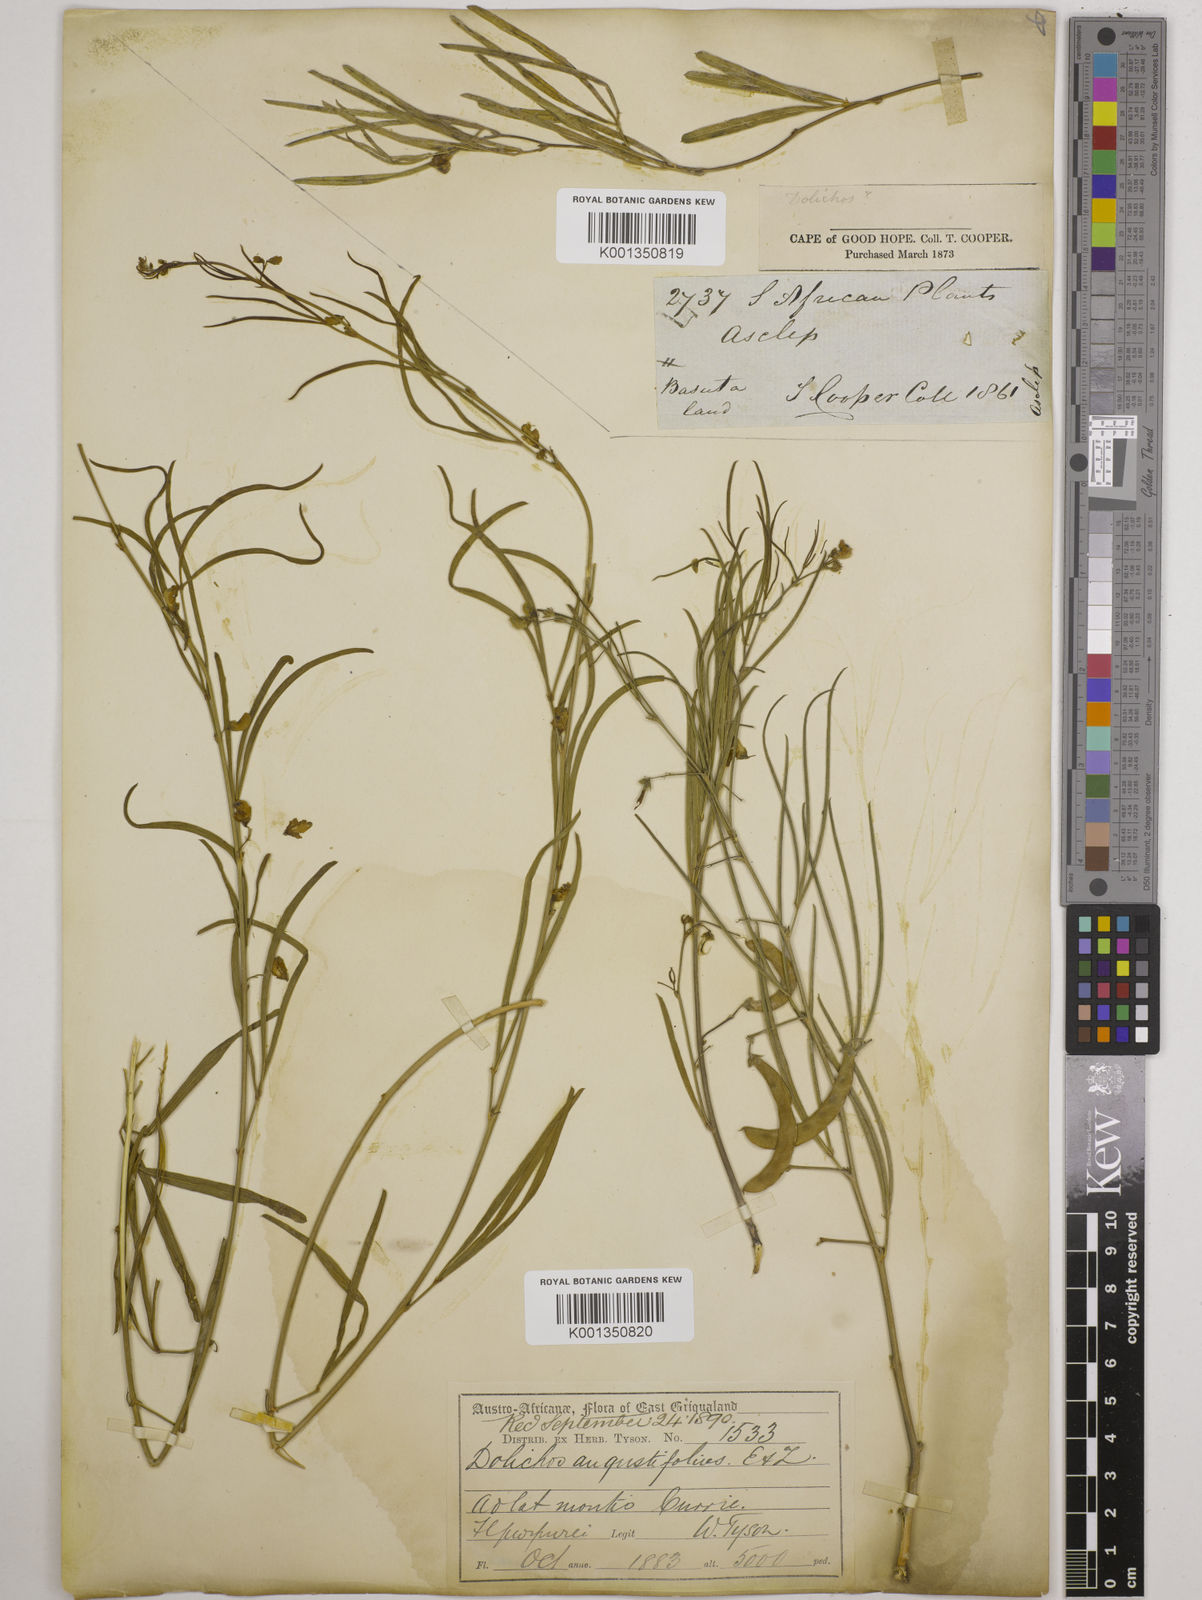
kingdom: Plantae
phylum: Tracheophyta
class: Magnoliopsida
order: Fabales
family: Fabaceae
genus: Dolichos
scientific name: Dolichos
